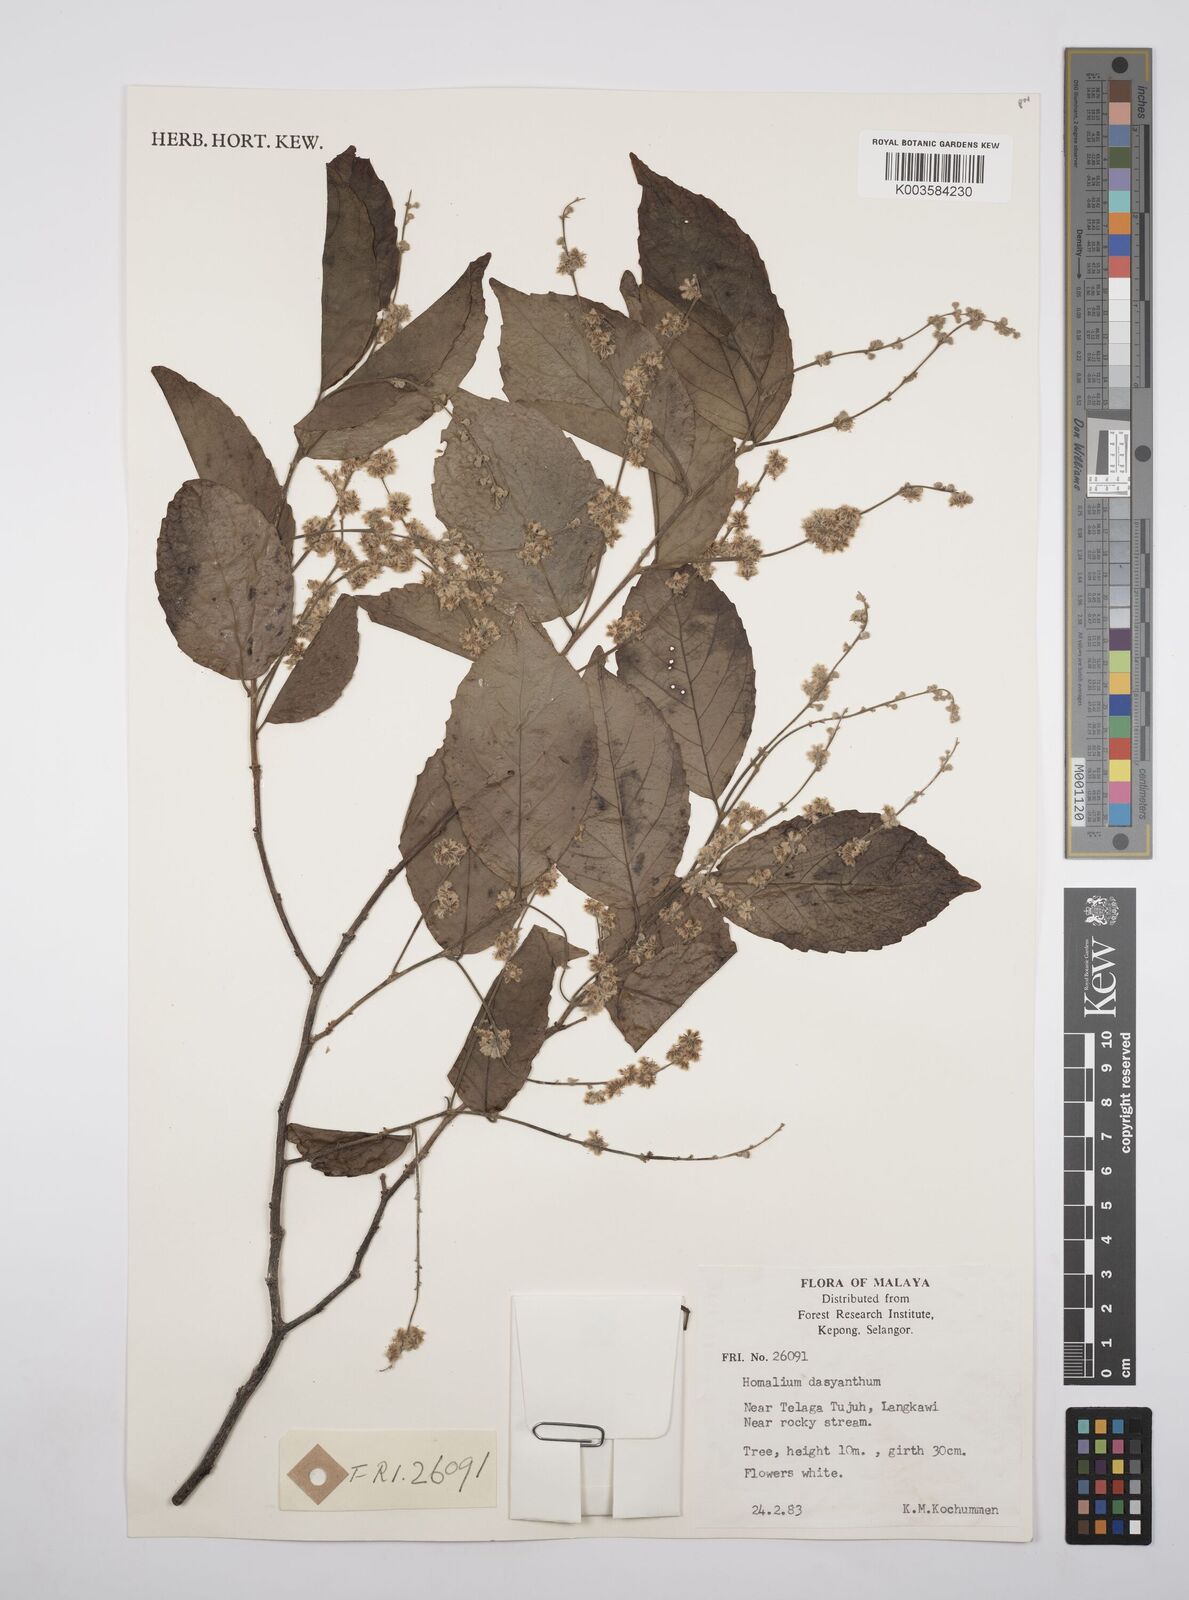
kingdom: Plantae
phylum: Tracheophyta
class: Magnoliopsida
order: Malpighiales
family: Salicaceae
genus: Homalium
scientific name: Homalium dasyanthum
